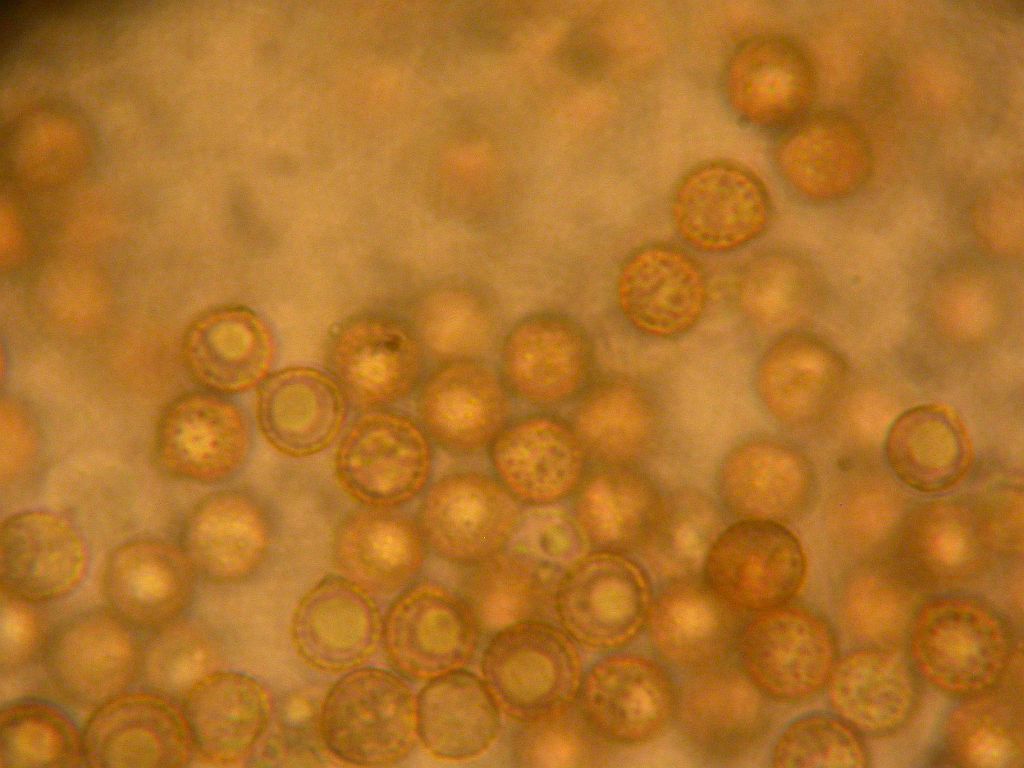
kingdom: Fungi
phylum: Basidiomycota
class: Agaricomycetes
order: Agaricales
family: Crepidotaceae
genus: Crepidotus
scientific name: Crepidotus applanatus
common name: tvefarvet muslingesvamp
